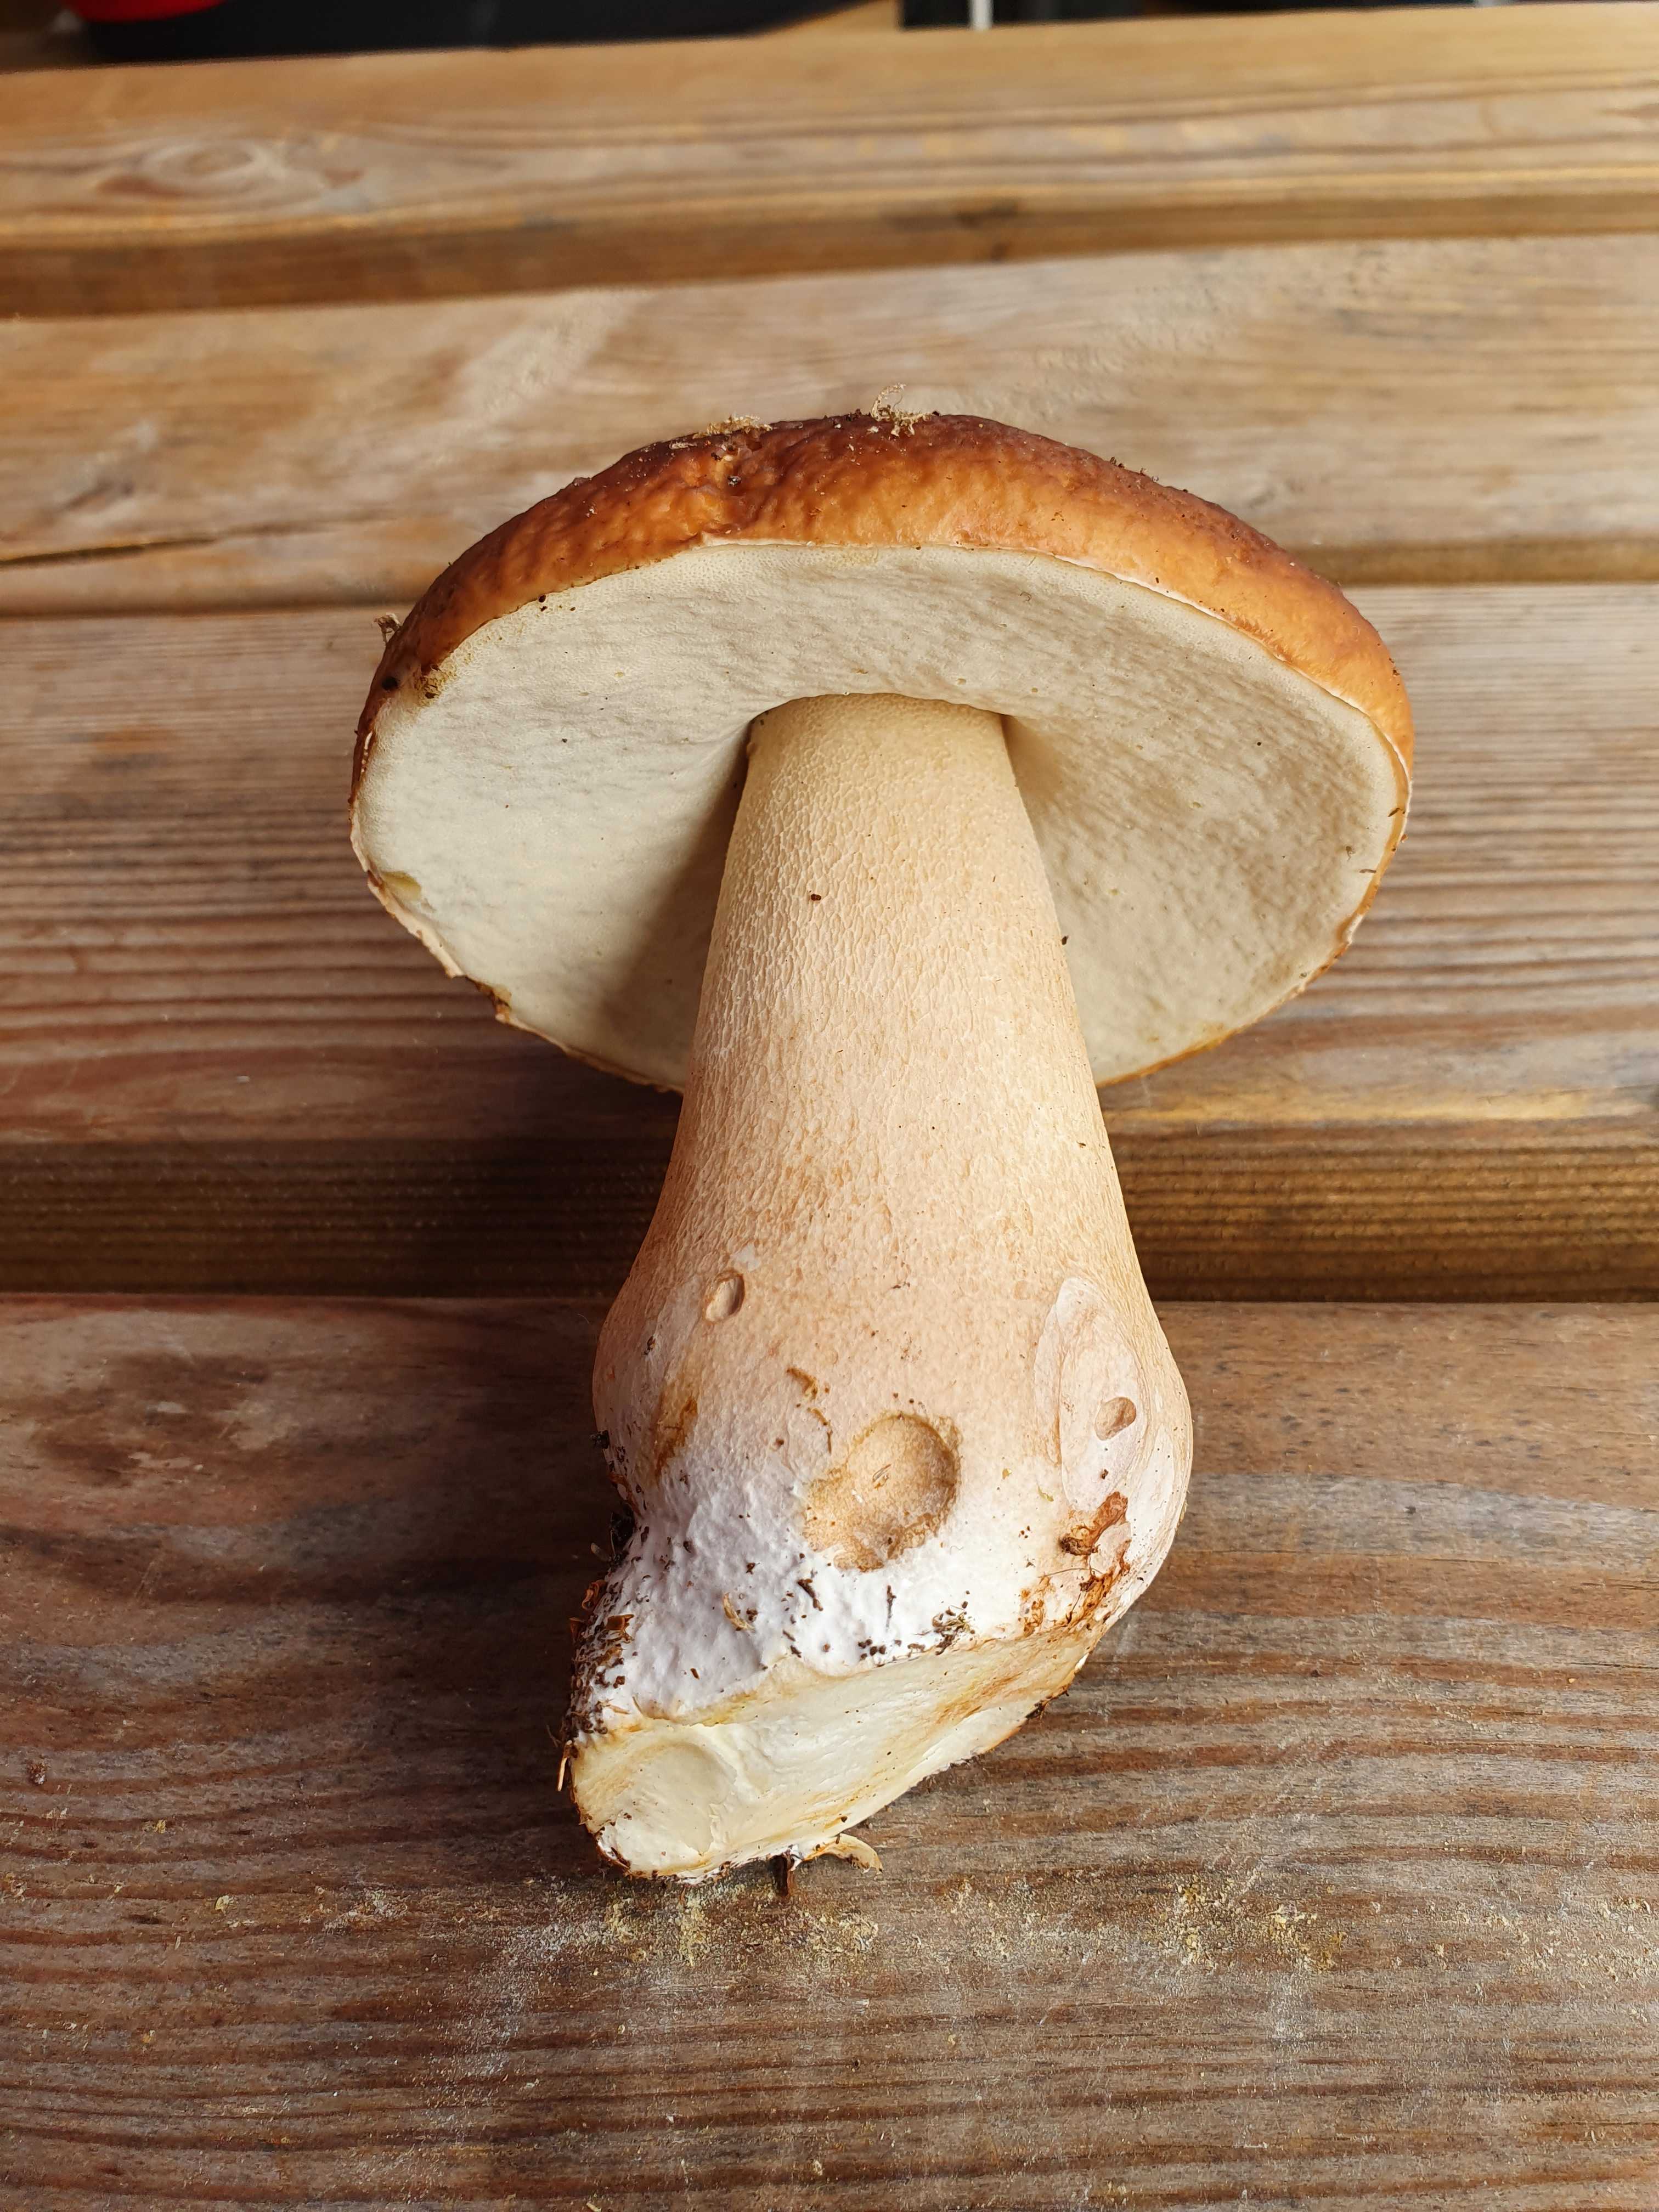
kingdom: Fungi
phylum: Basidiomycota
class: Agaricomycetes
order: Boletales
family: Boletaceae
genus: Boletus
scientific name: Boletus edulis
